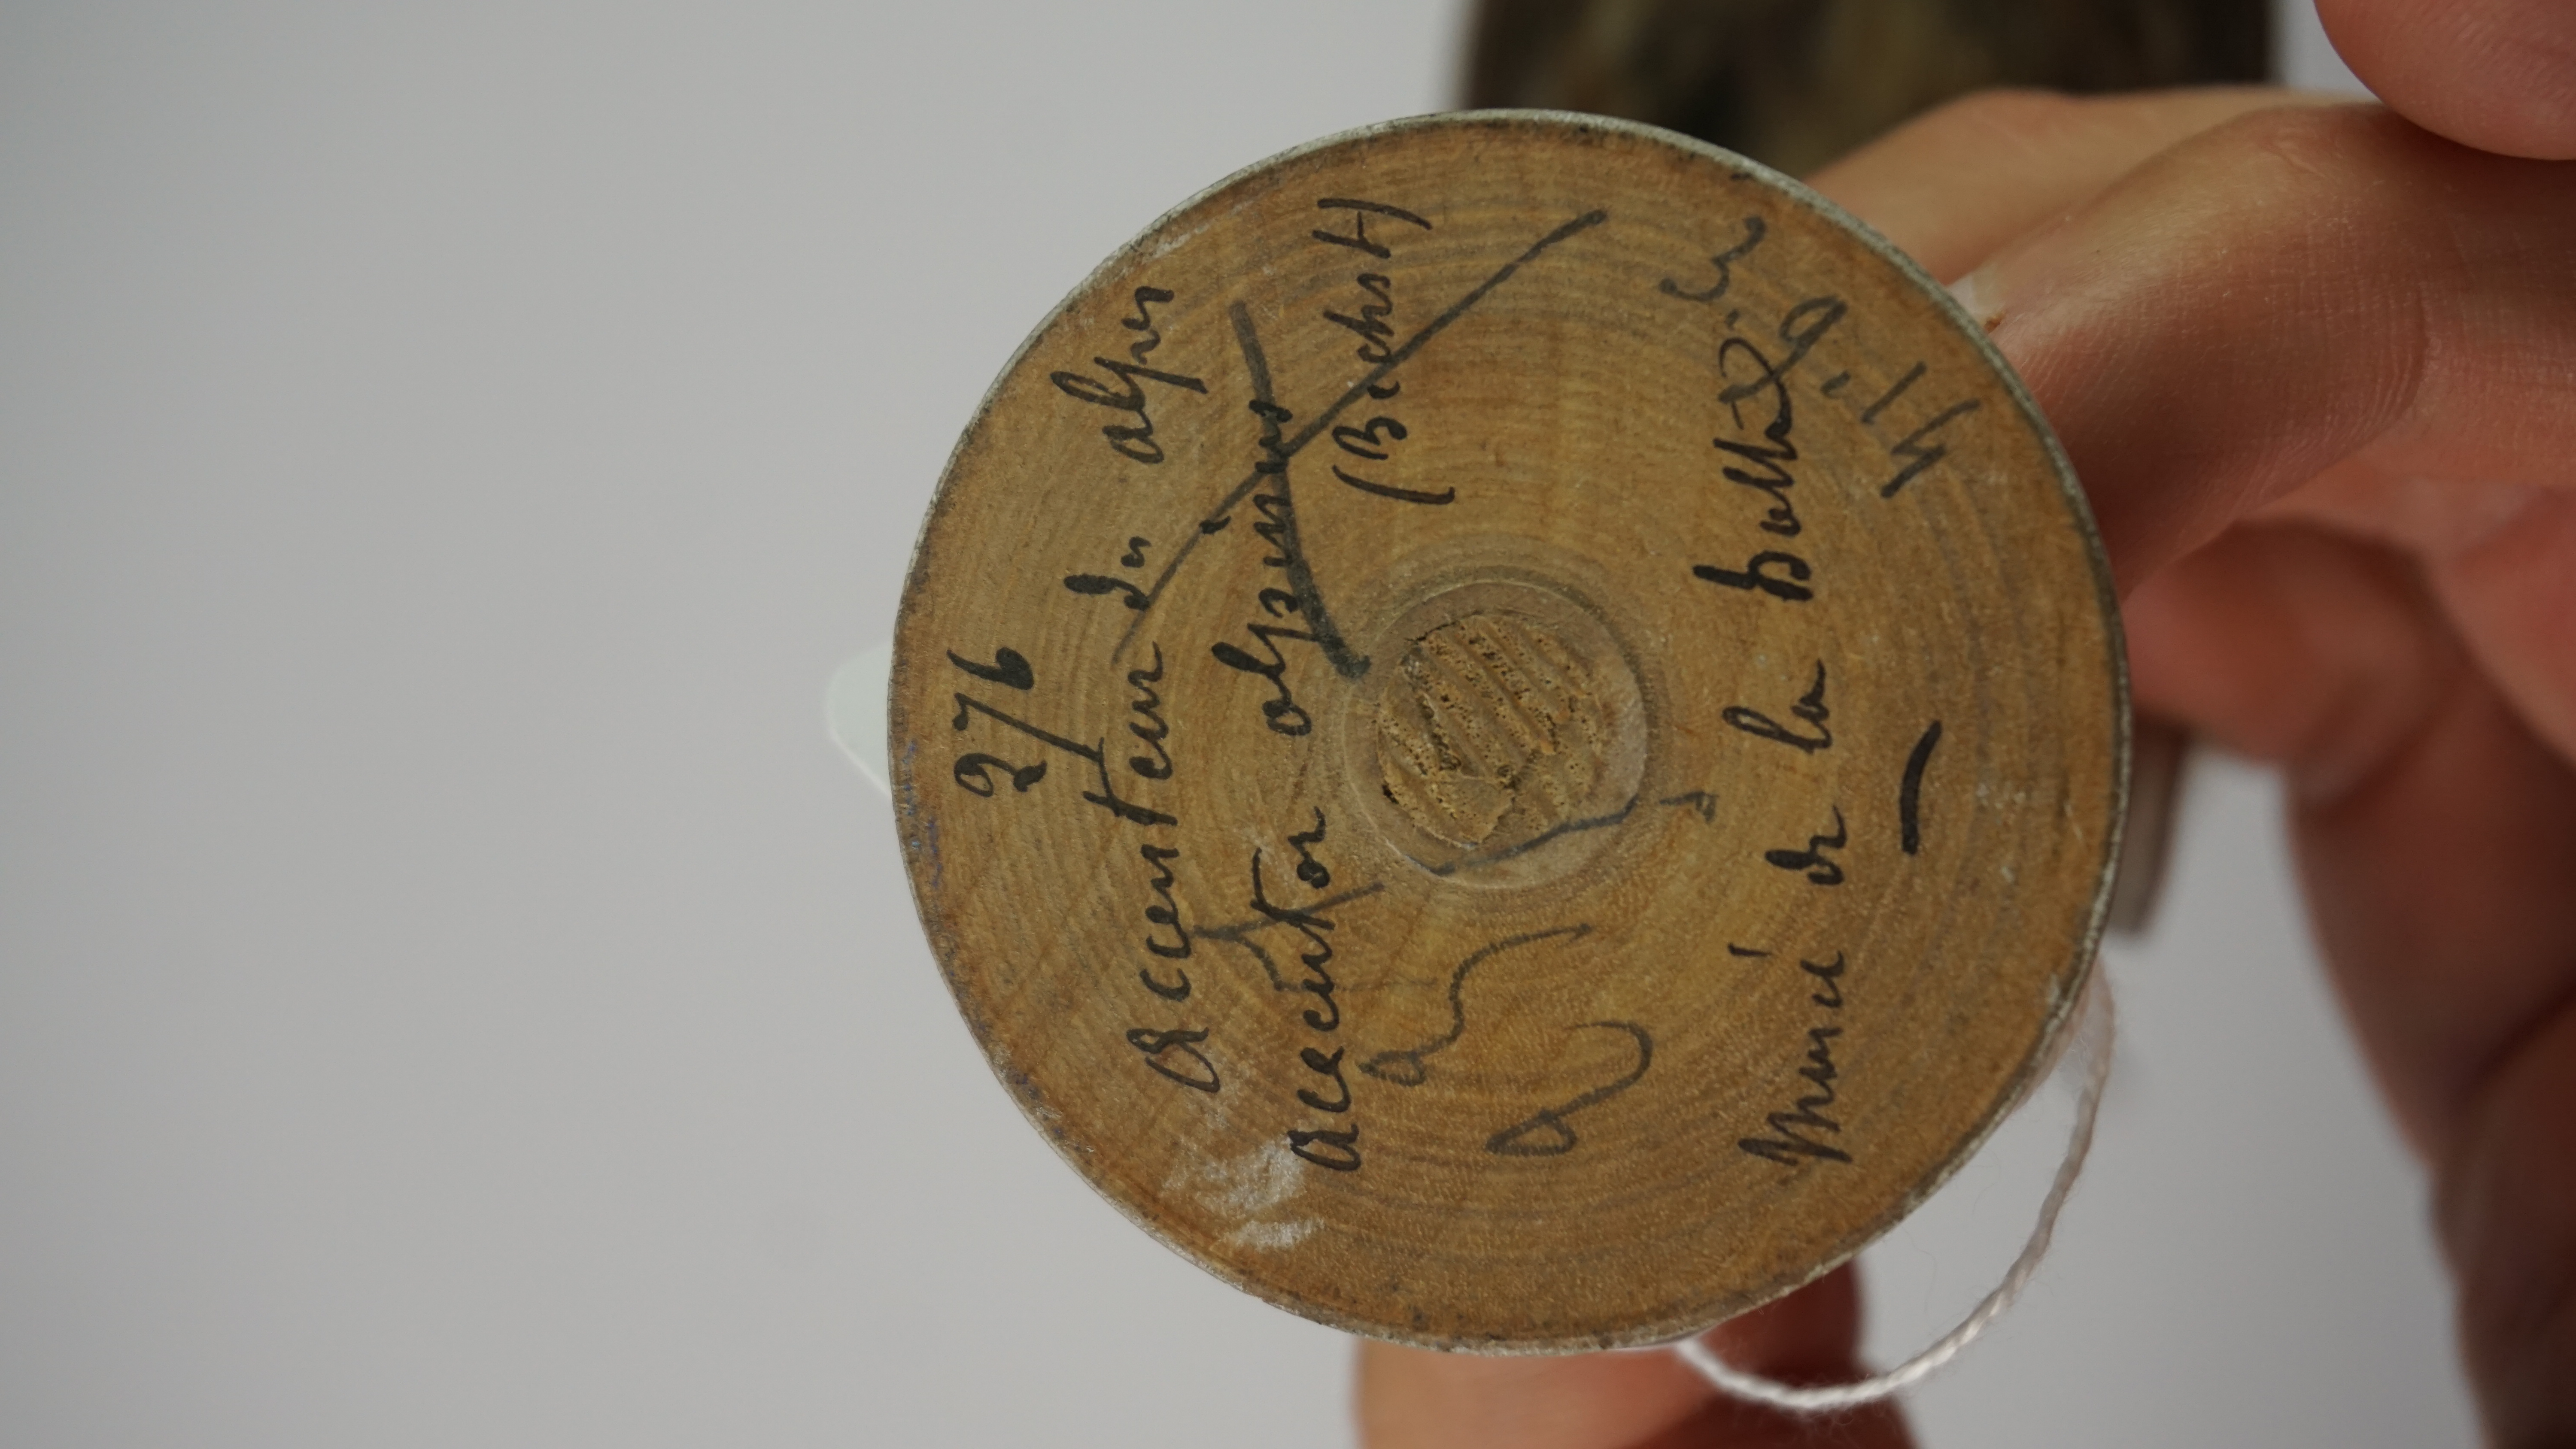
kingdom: Animalia
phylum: Chordata
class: Aves
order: Gruiformes
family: Psophiidae
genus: Psophia
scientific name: Psophia crepitans
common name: Grey-winged trumpeter
